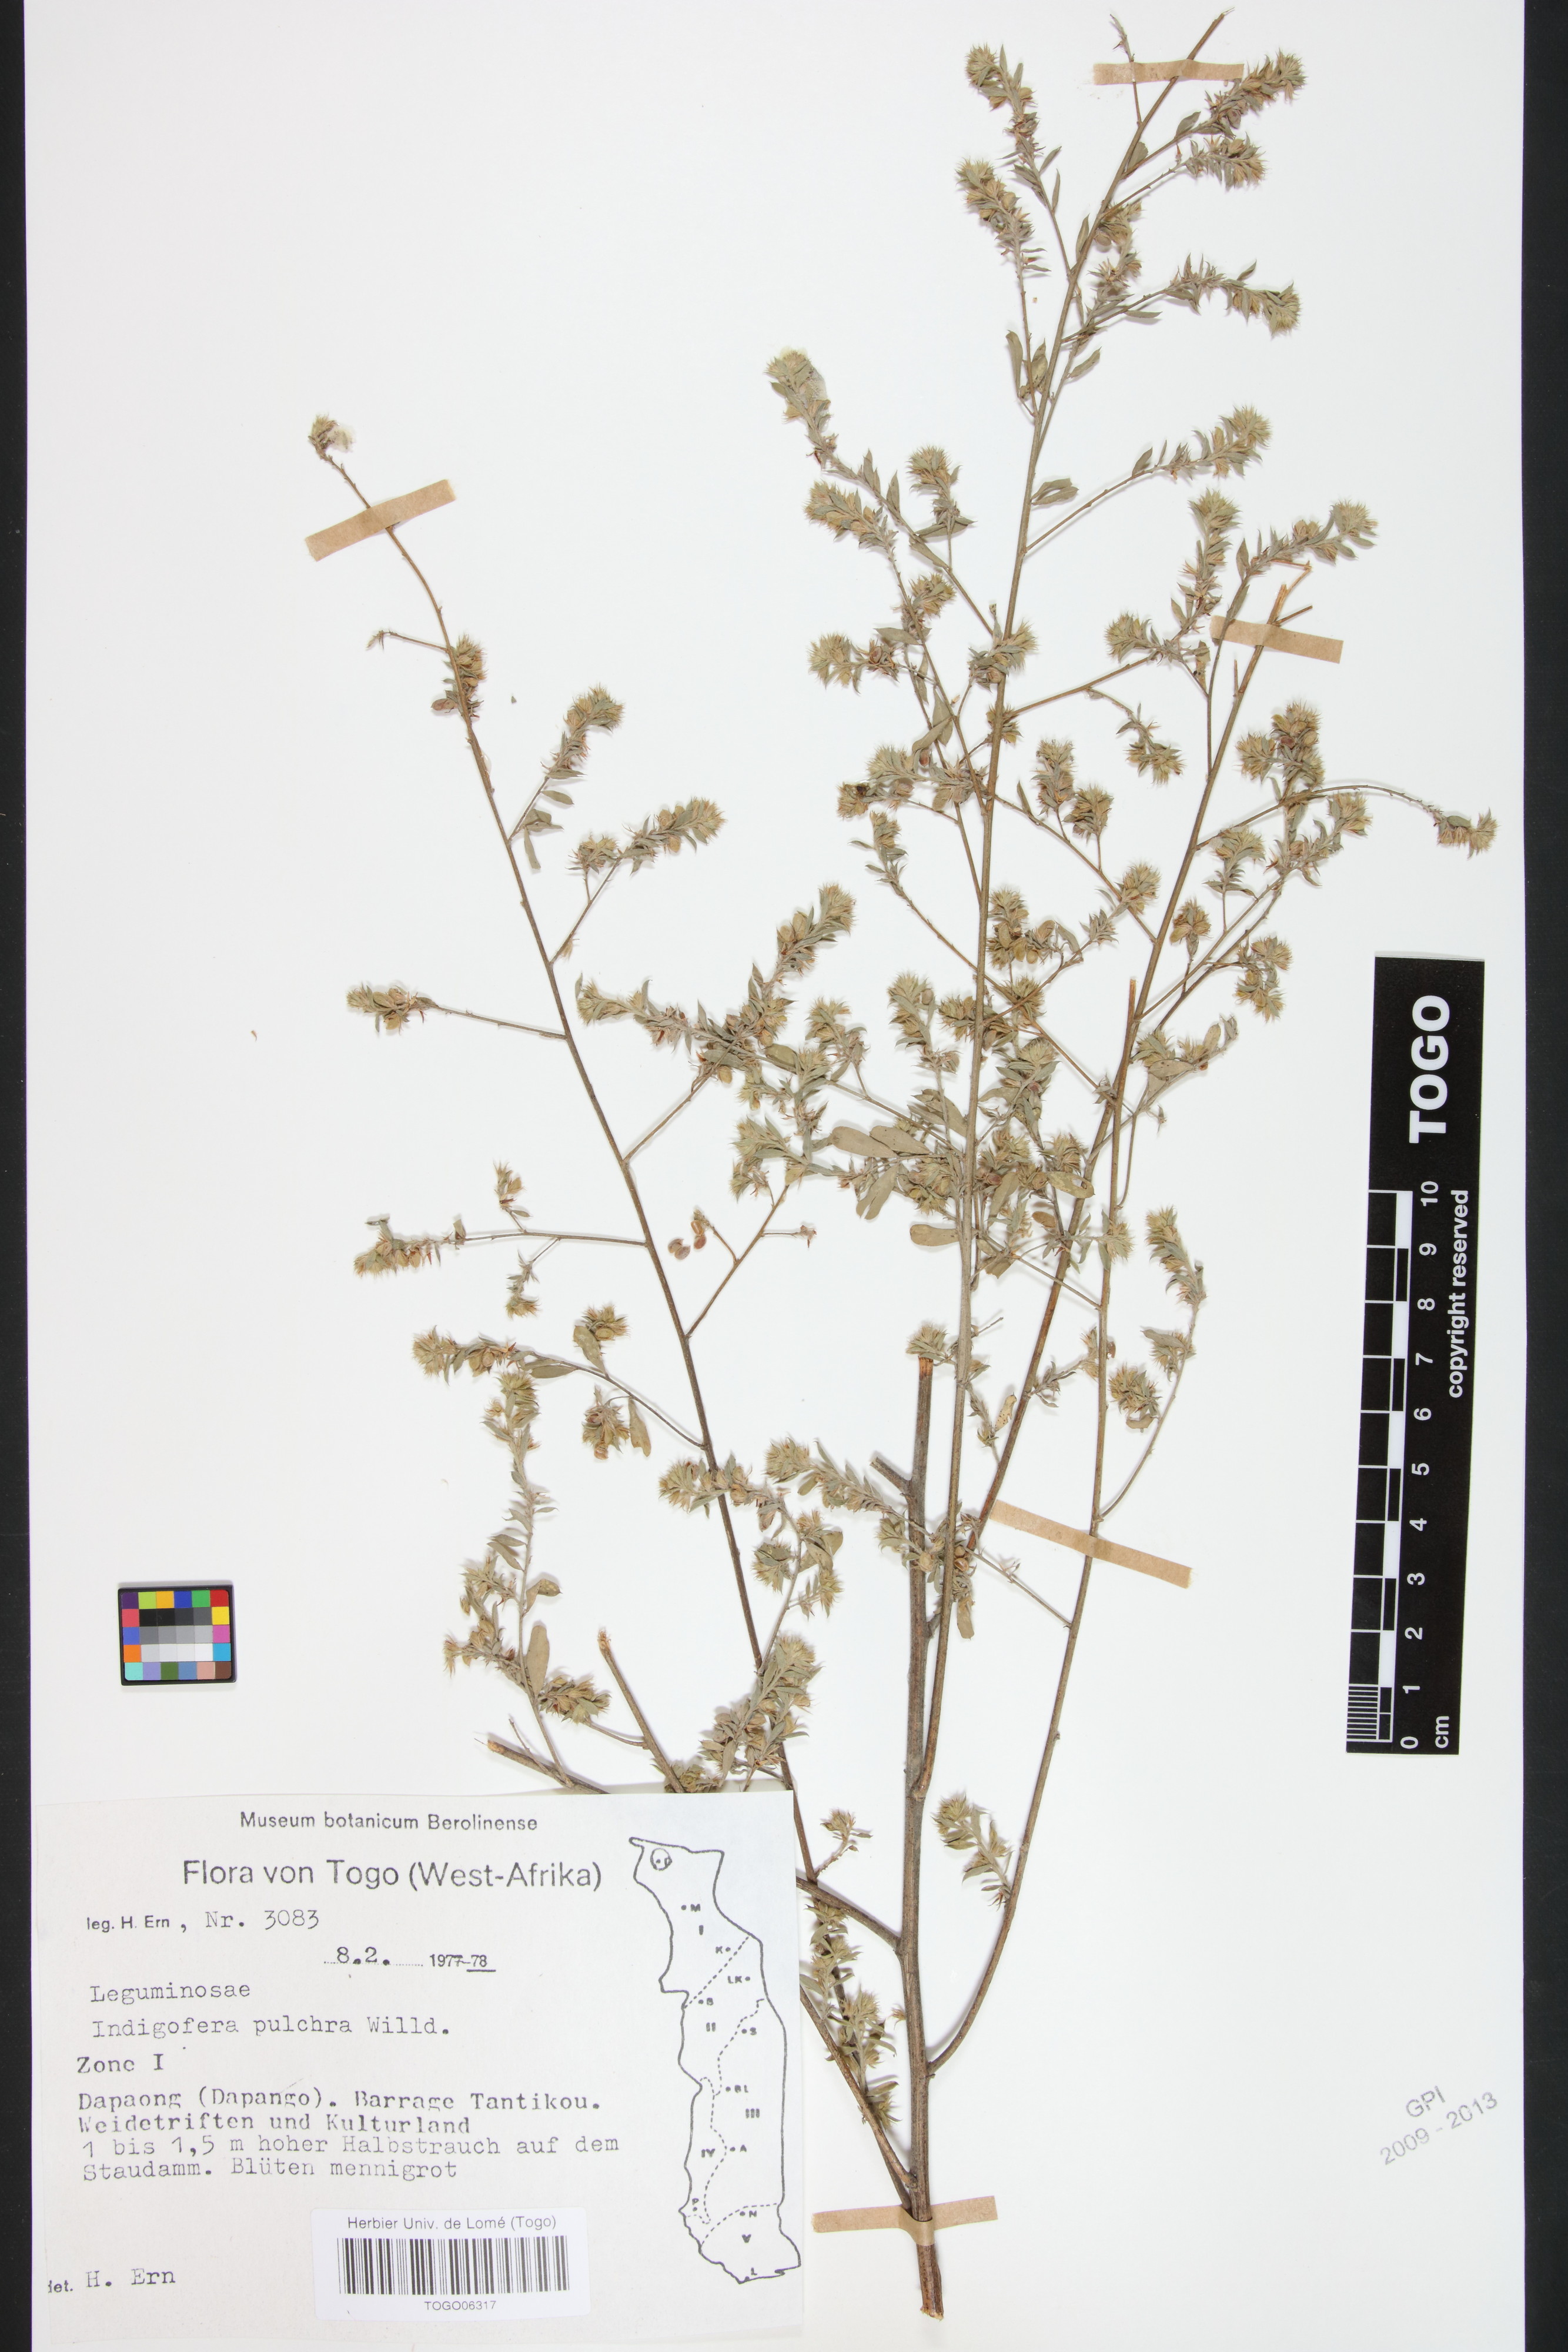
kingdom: Plantae
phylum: Tracheophyta
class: Magnoliopsida
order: Fabales
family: Fabaceae
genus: Indigofera
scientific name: Indigofera pulchra
